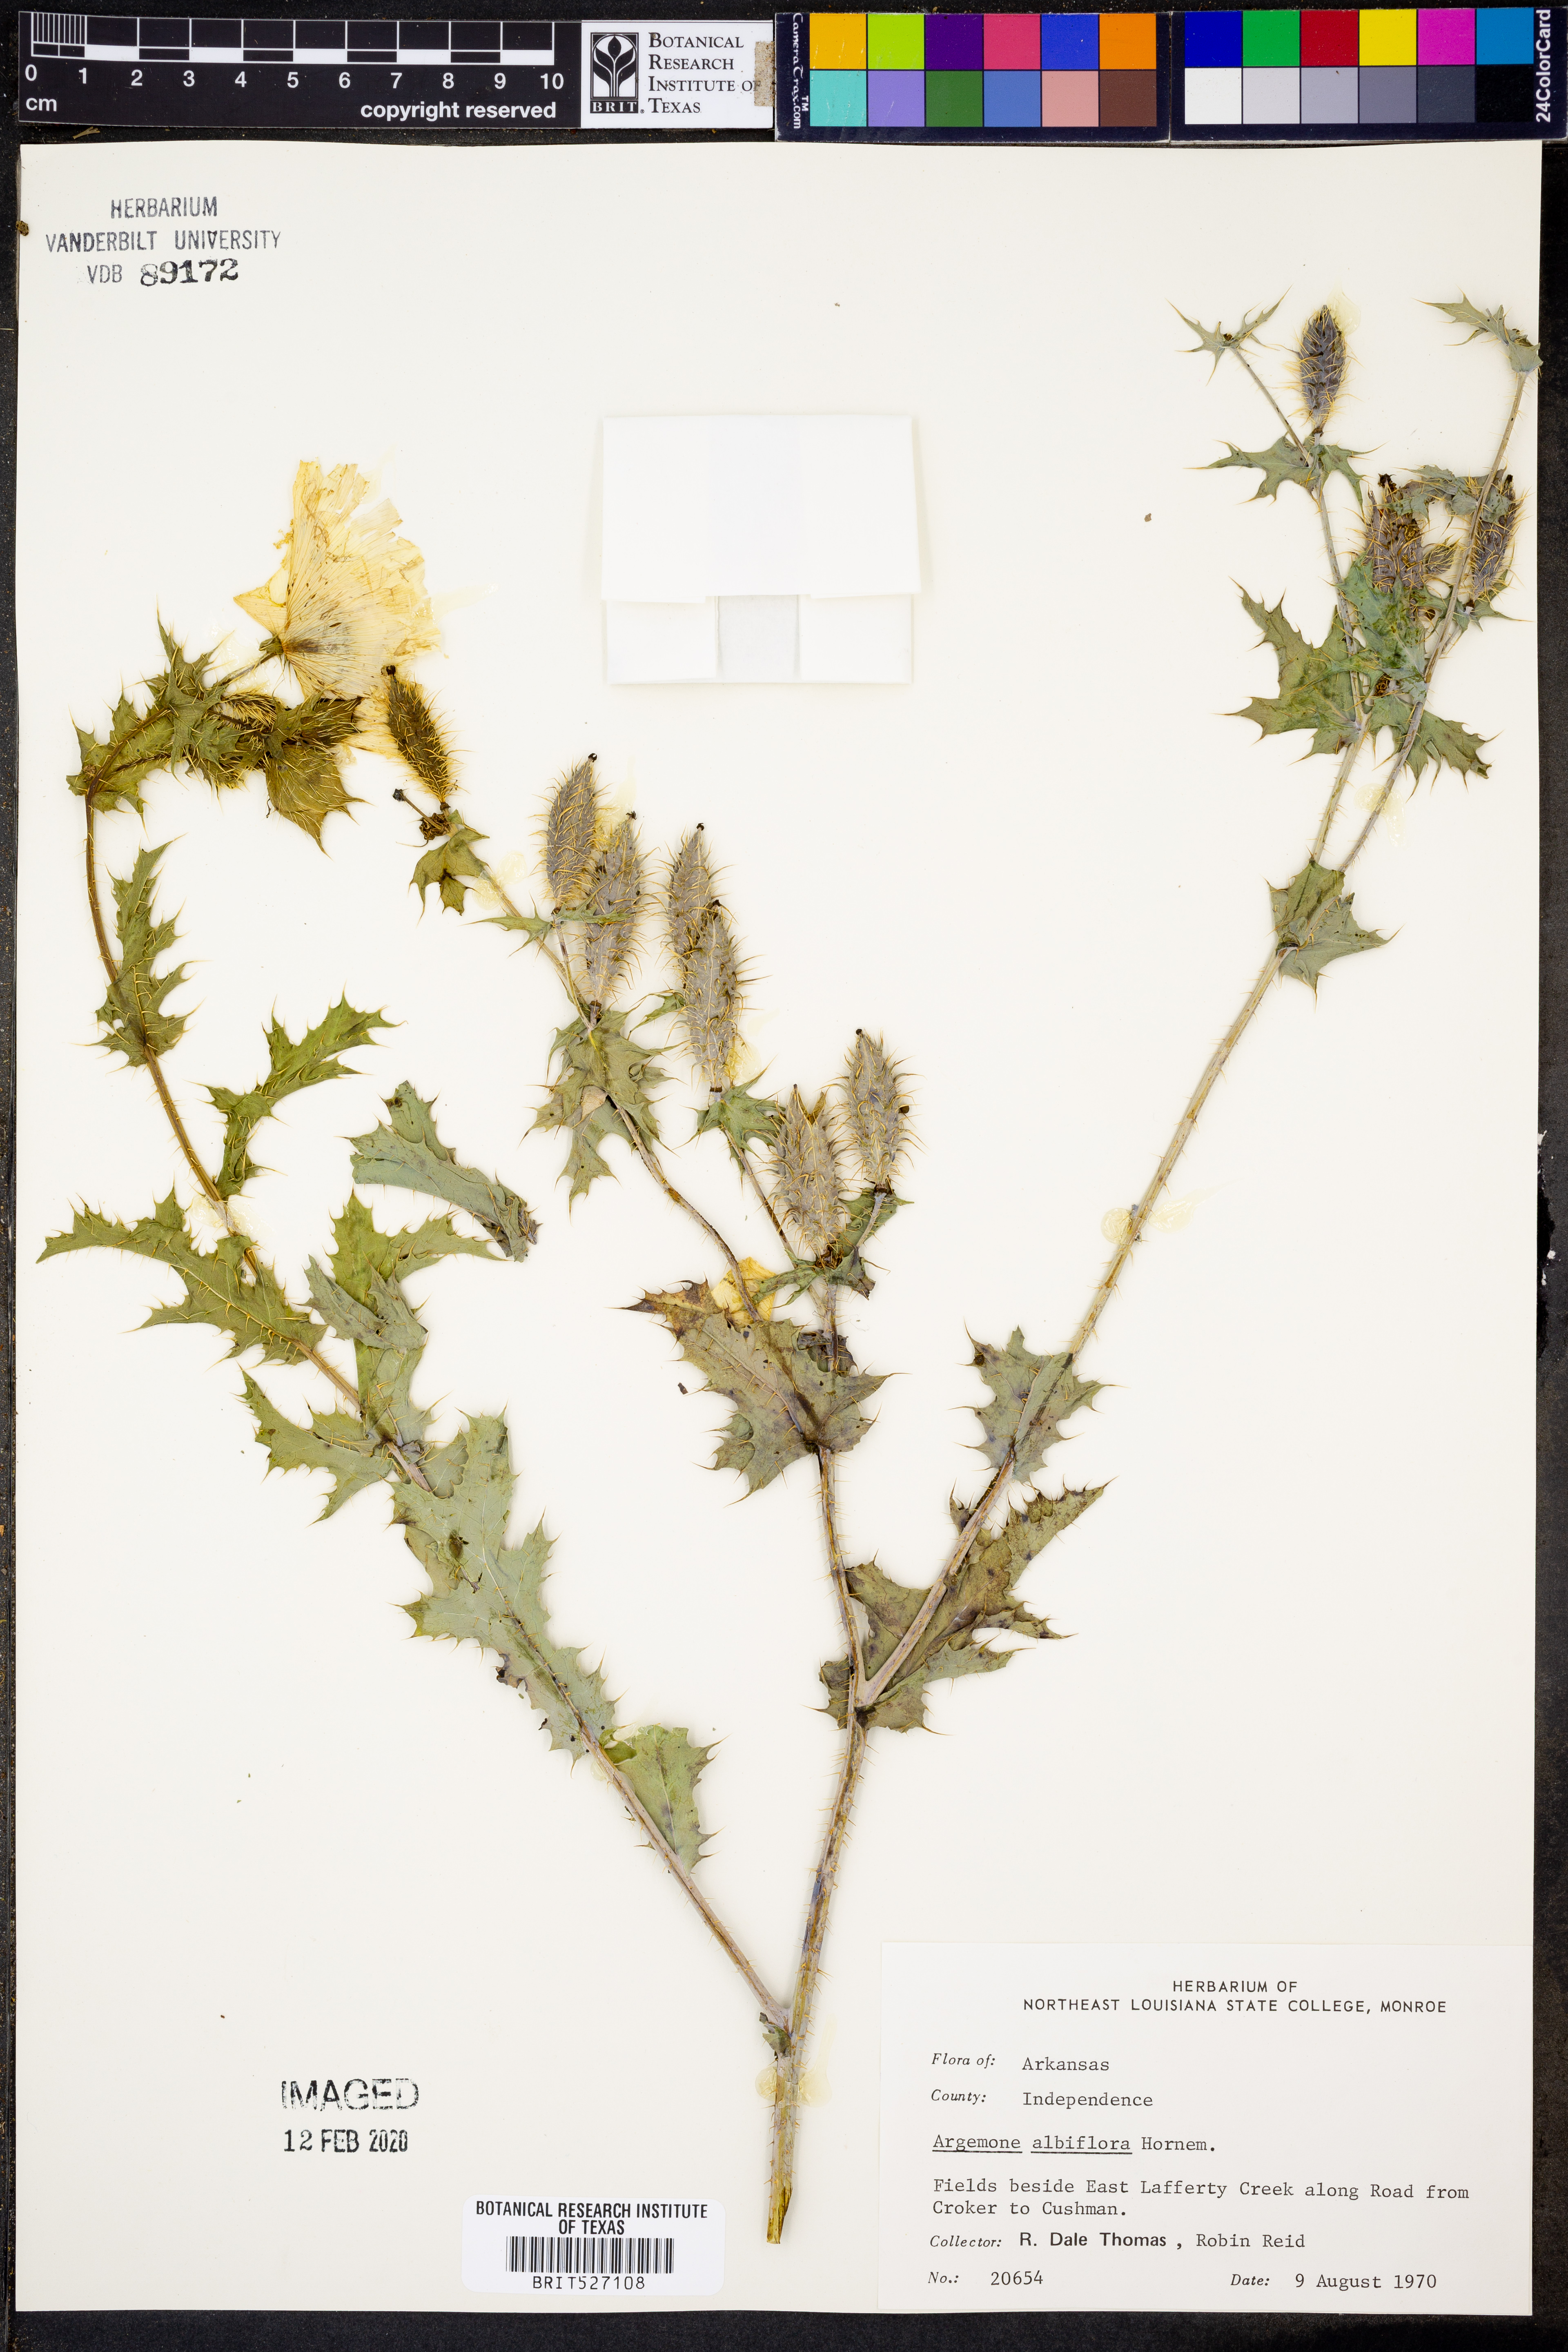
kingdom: Plantae
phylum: Tracheophyta
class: Magnoliopsida
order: Ranunculales
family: Papaveraceae
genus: Argemone
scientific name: Argemone albiflora
